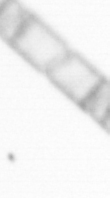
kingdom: Chromista
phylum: Ochrophyta
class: Bacillariophyceae
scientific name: Bacillariophyceae
